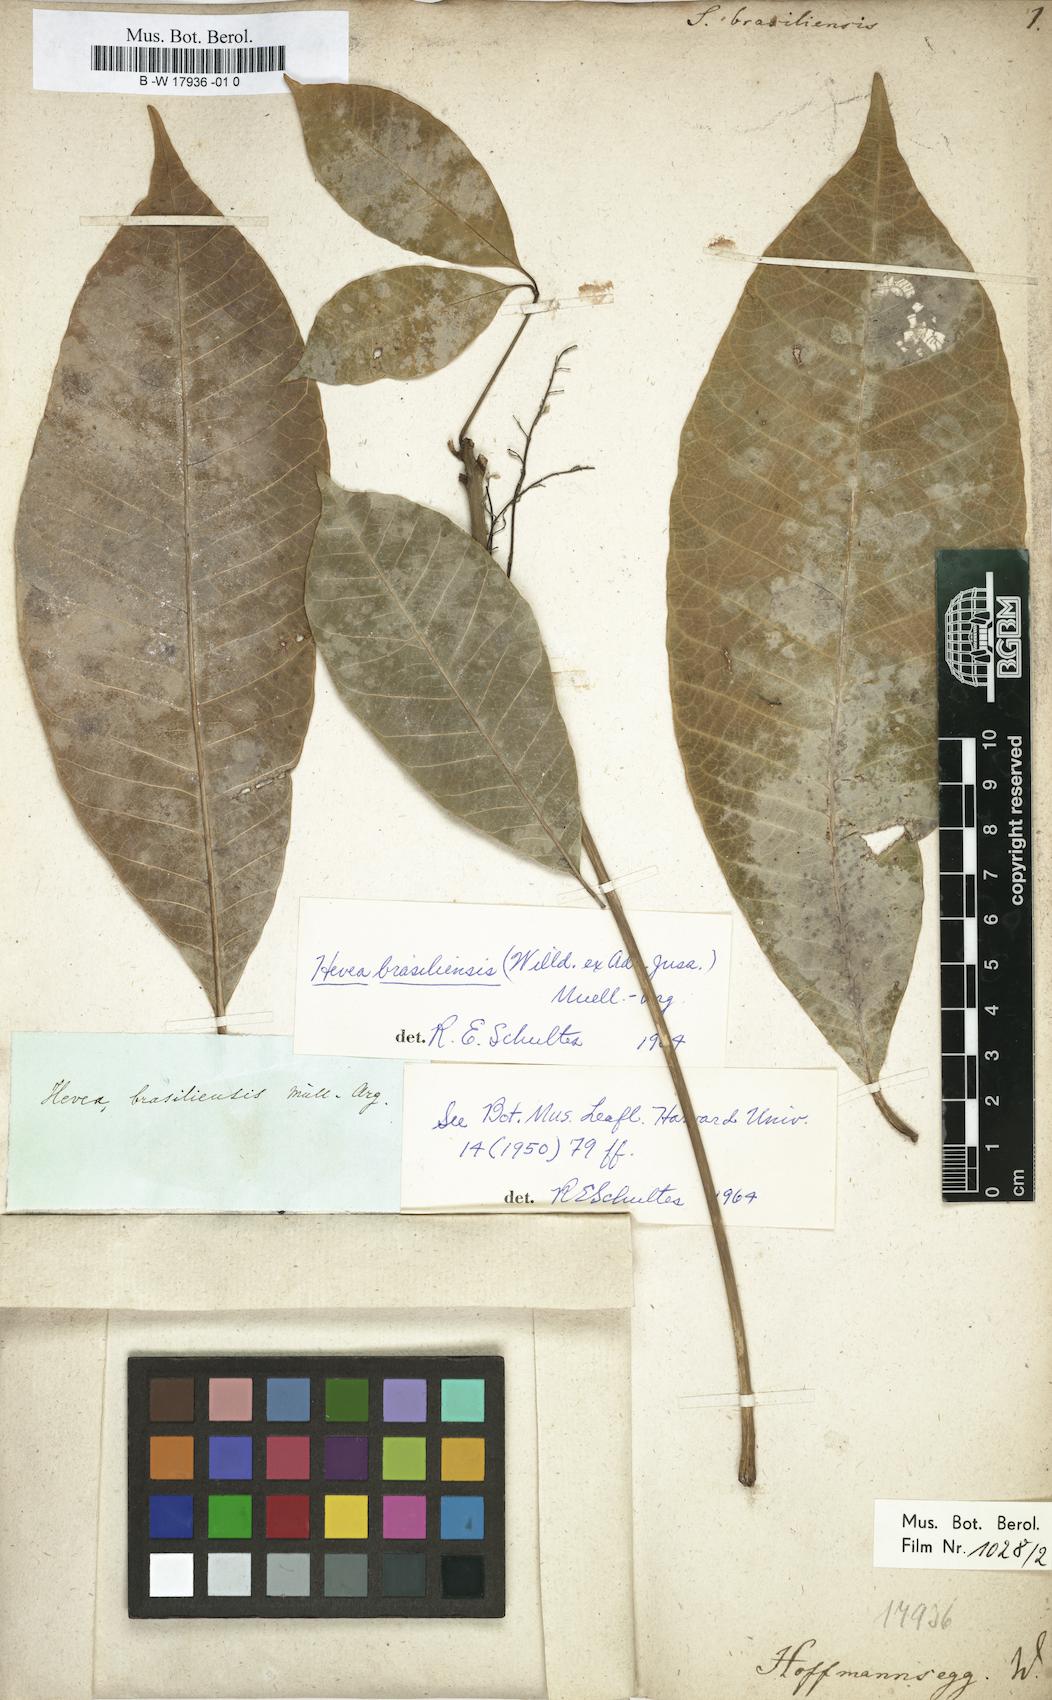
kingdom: Plantae
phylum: Tracheophyta
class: Magnoliopsida
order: Malpighiales
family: Euphorbiaceae
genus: Hevea
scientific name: Hevea brasiliensis
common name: Natural rubber
